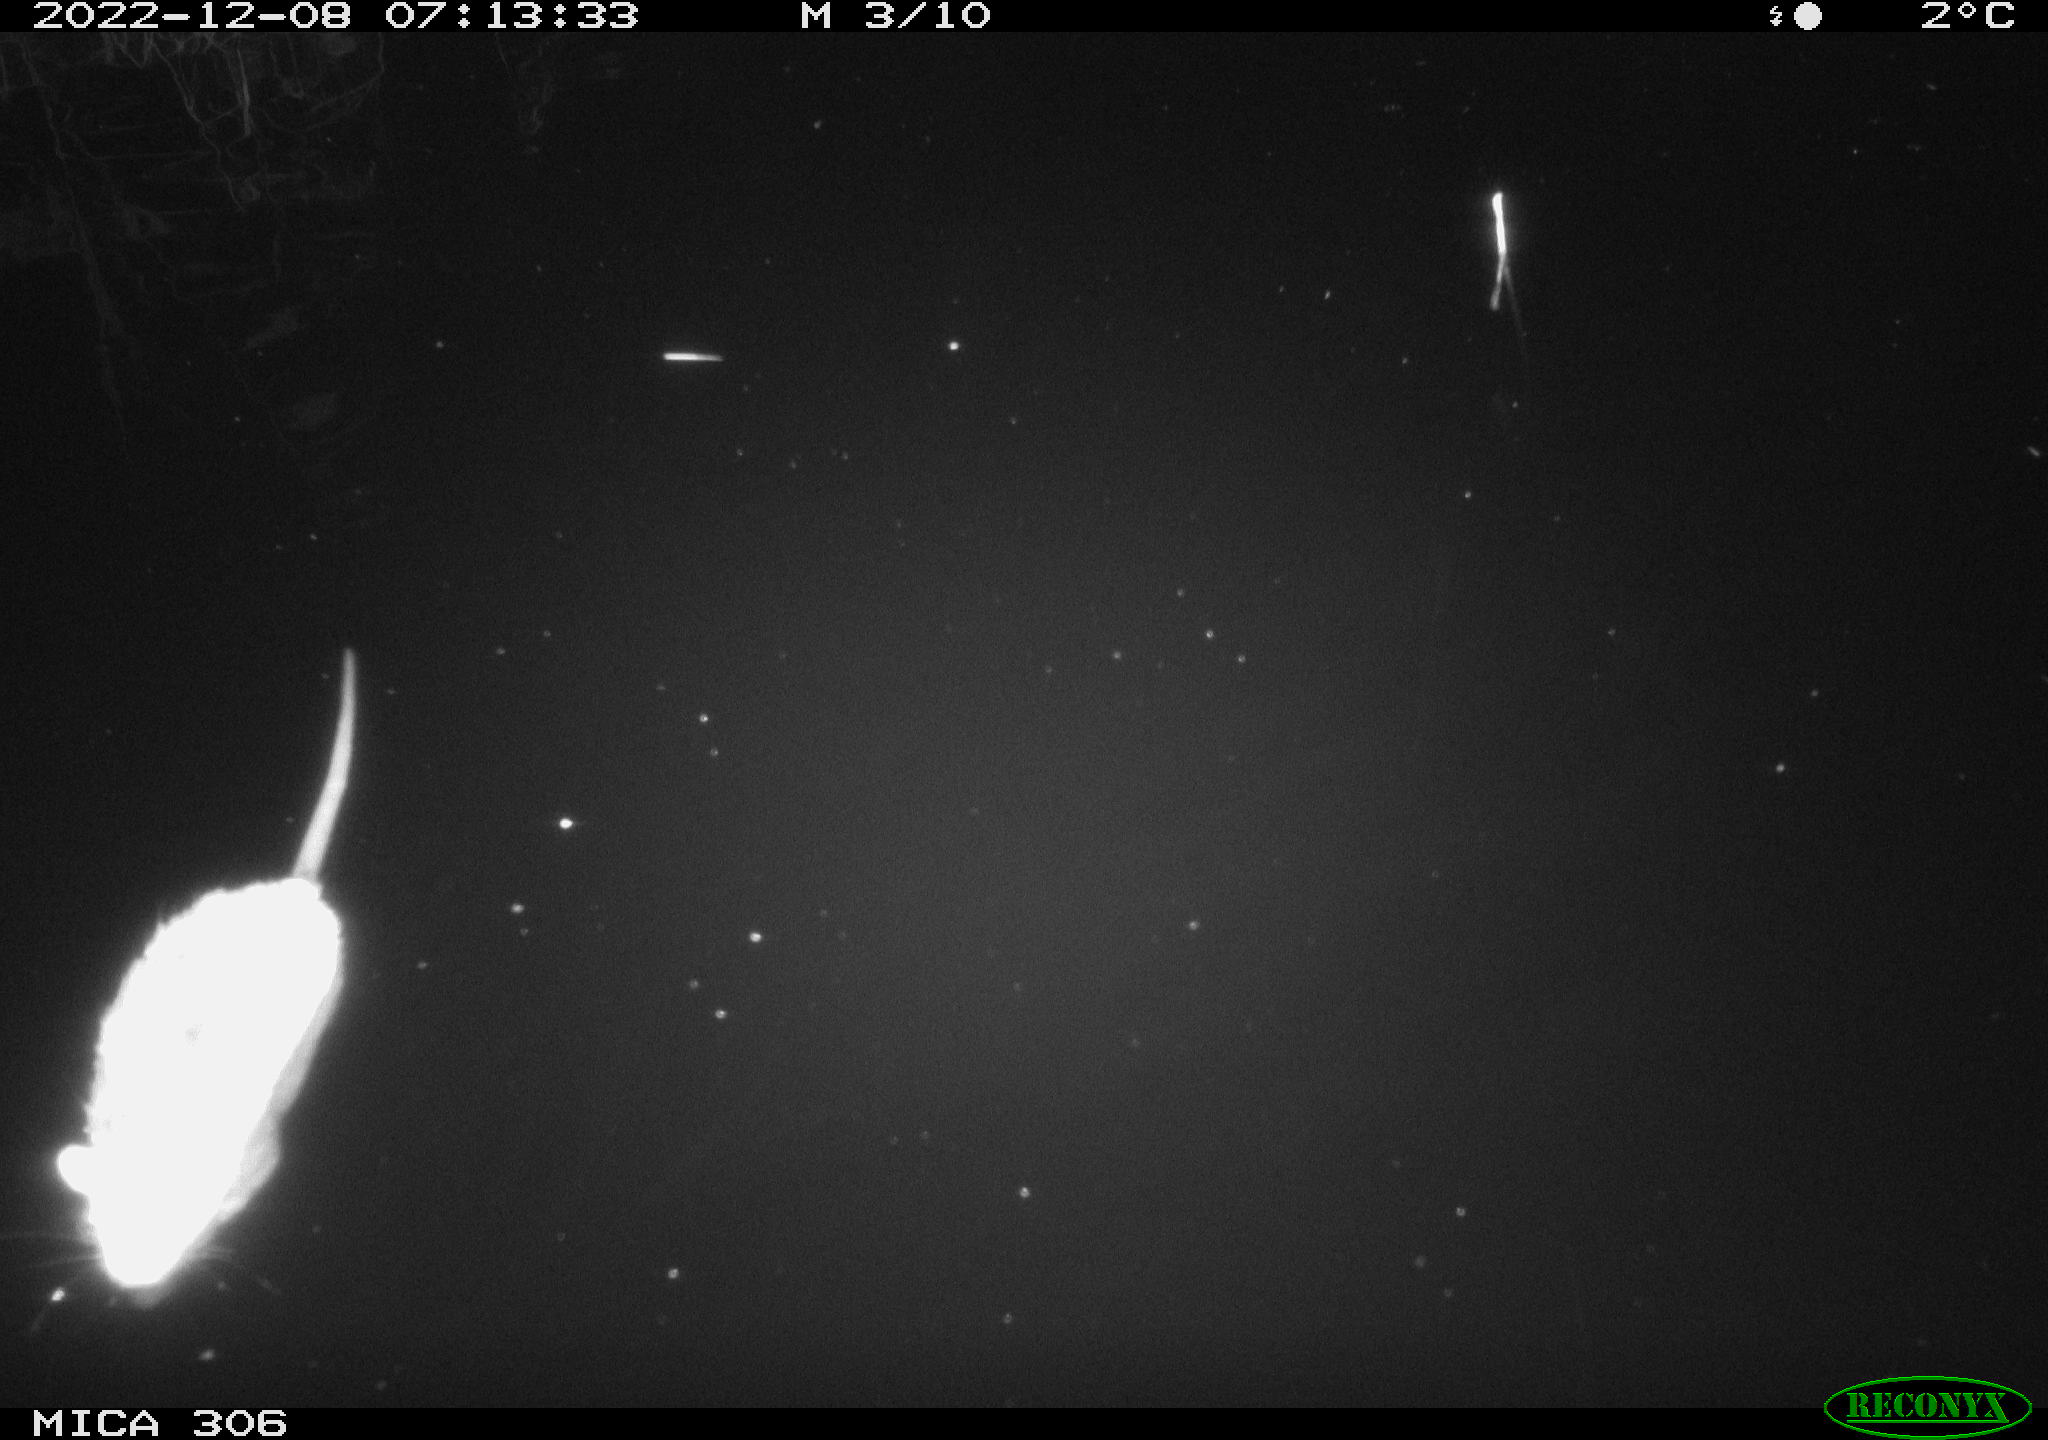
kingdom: Animalia
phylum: Chordata
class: Mammalia
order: Rodentia
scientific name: Rodentia
